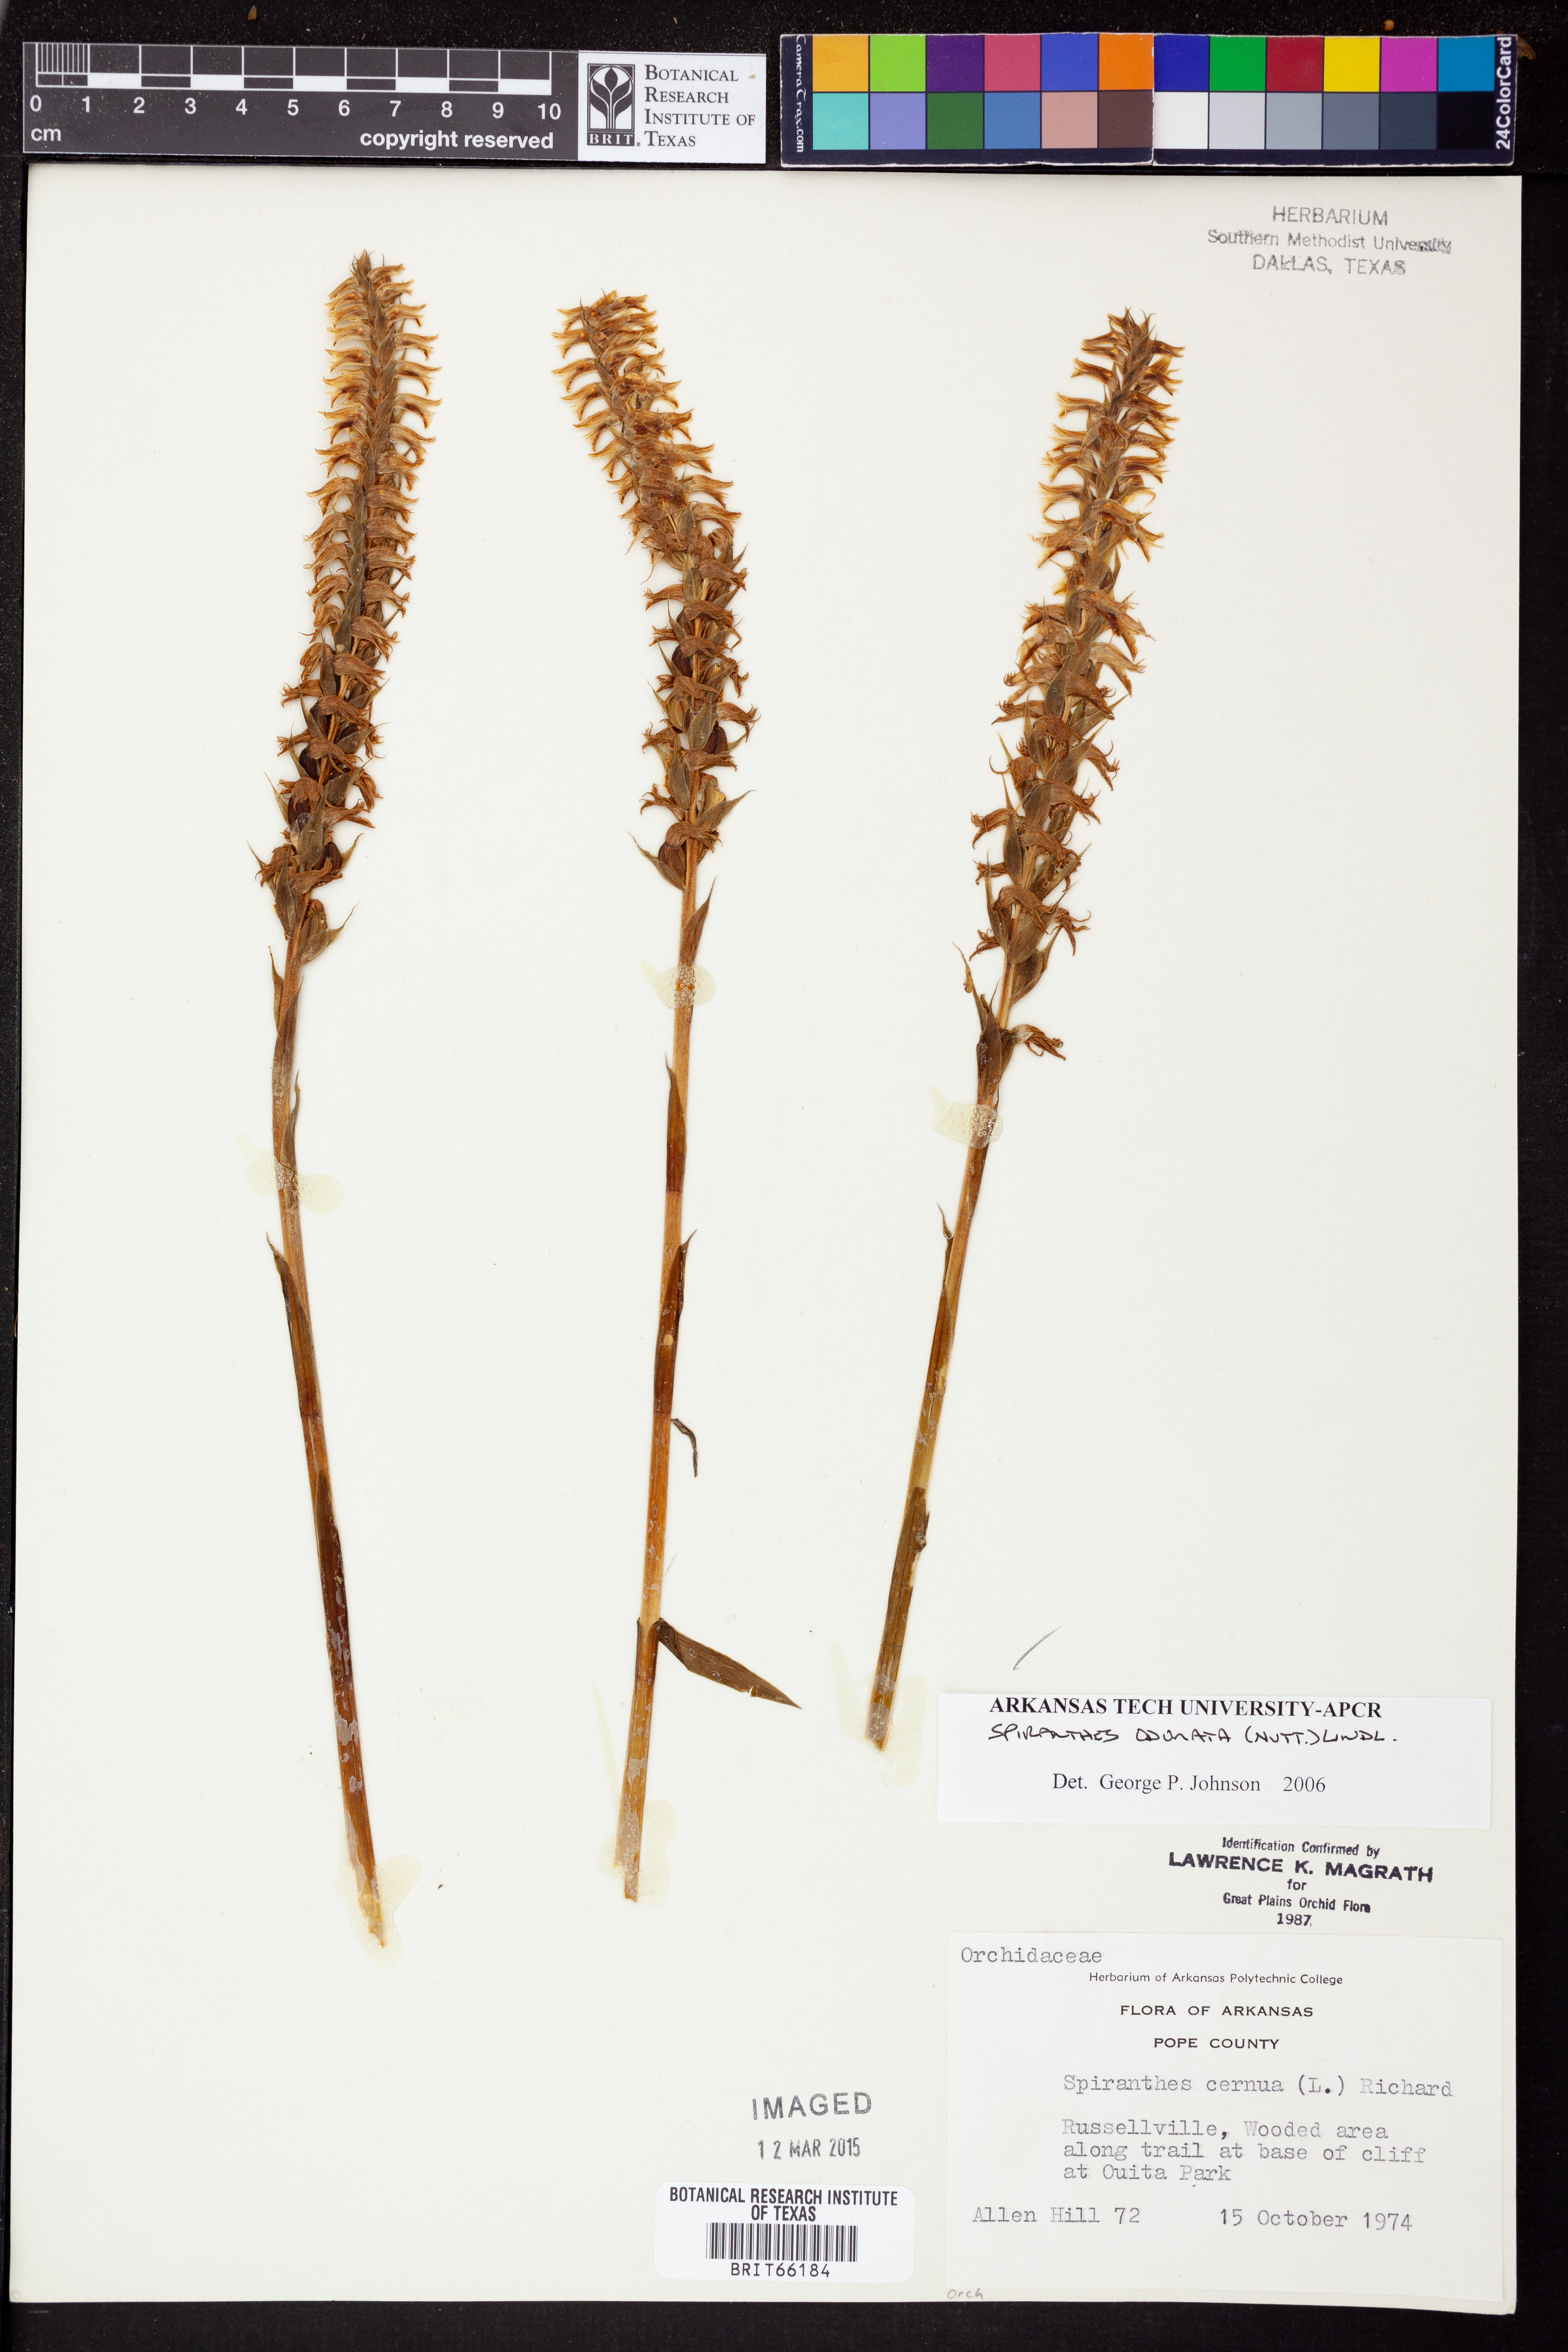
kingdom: Plantae
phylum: Tracheophyta
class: Liliopsida
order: Asparagales
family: Orchidaceae
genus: Spiranthes
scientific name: Spiranthes odorata
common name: Marsh ladies'-tresses
